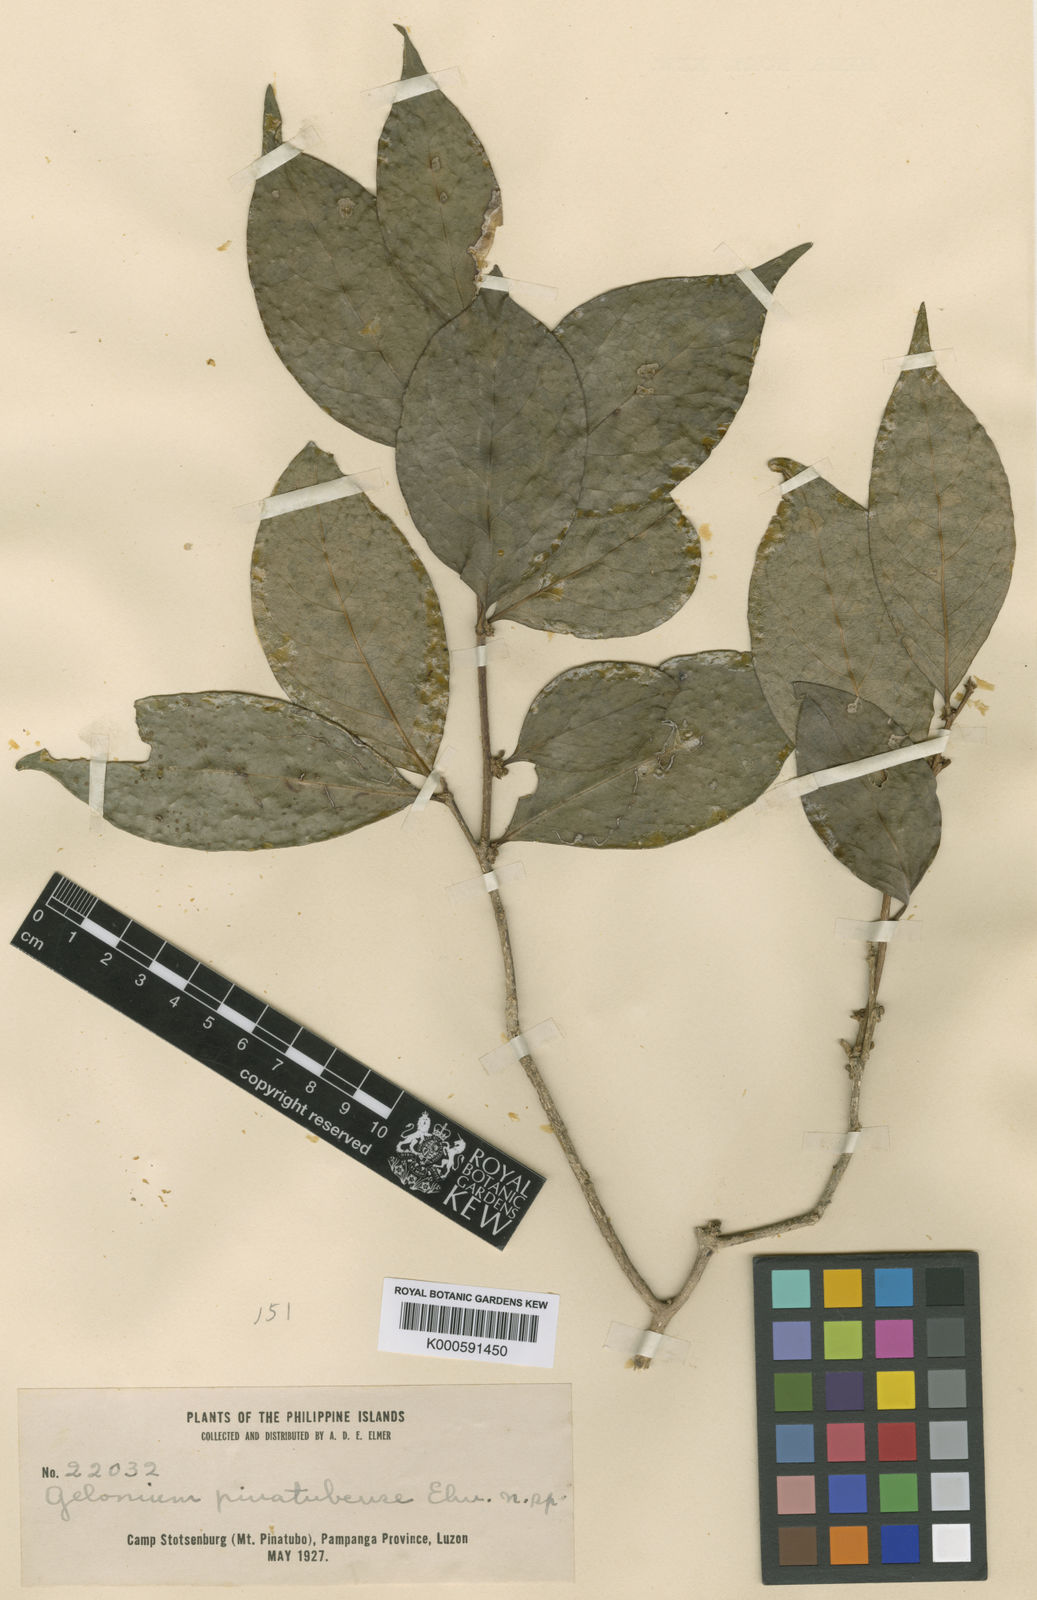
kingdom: Plantae
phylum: Tracheophyta
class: Magnoliopsida
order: Malpighiales
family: Salicaceae
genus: Casearia
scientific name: Casearia trivalvis
